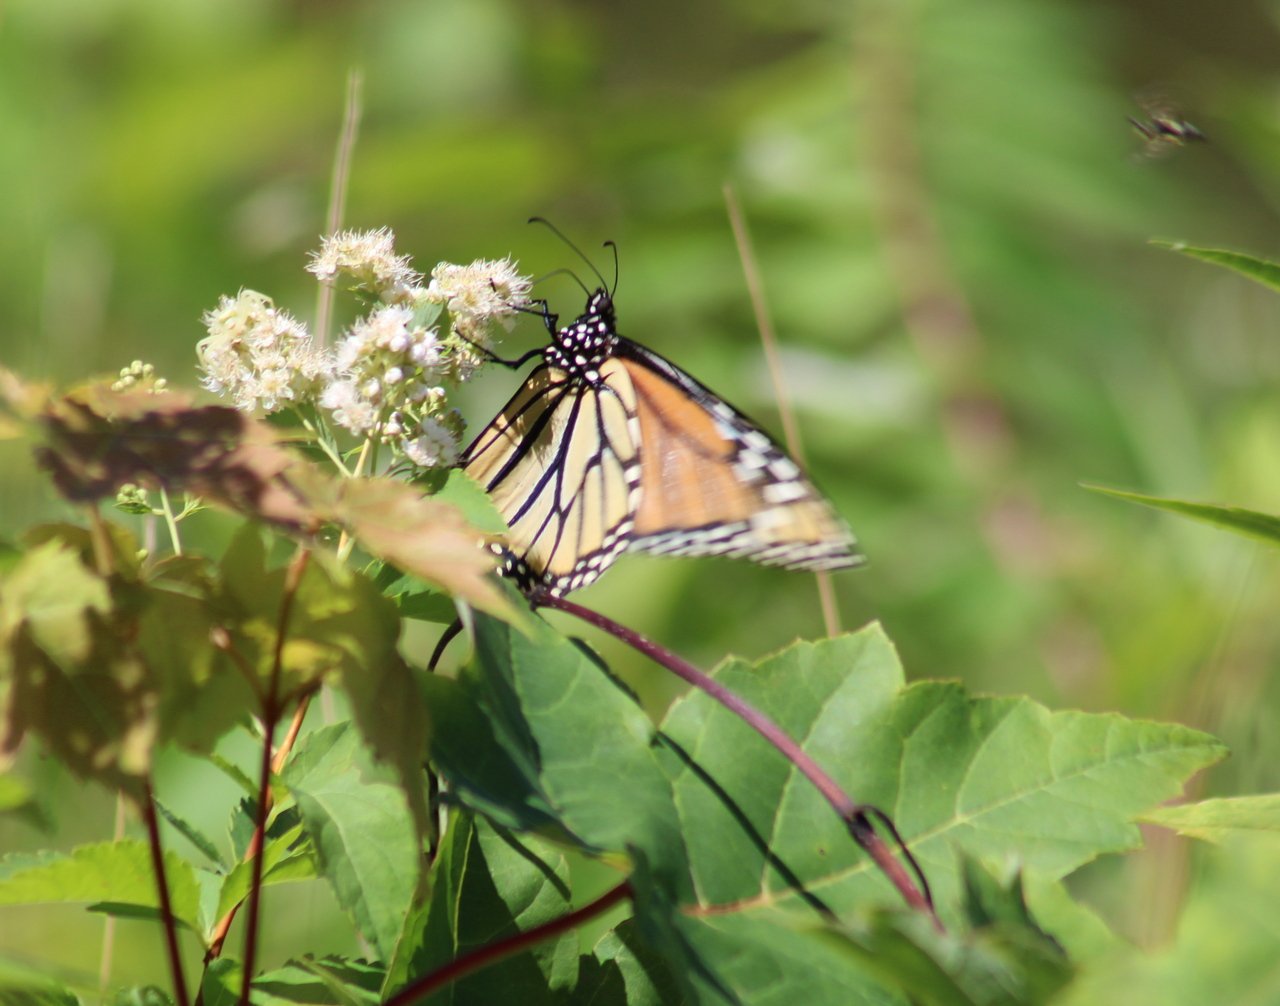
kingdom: Animalia
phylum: Arthropoda
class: Insecta
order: Lepidoptera
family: Nymphalidae
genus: Danaus
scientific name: Danaus plexippus
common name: Monarch
